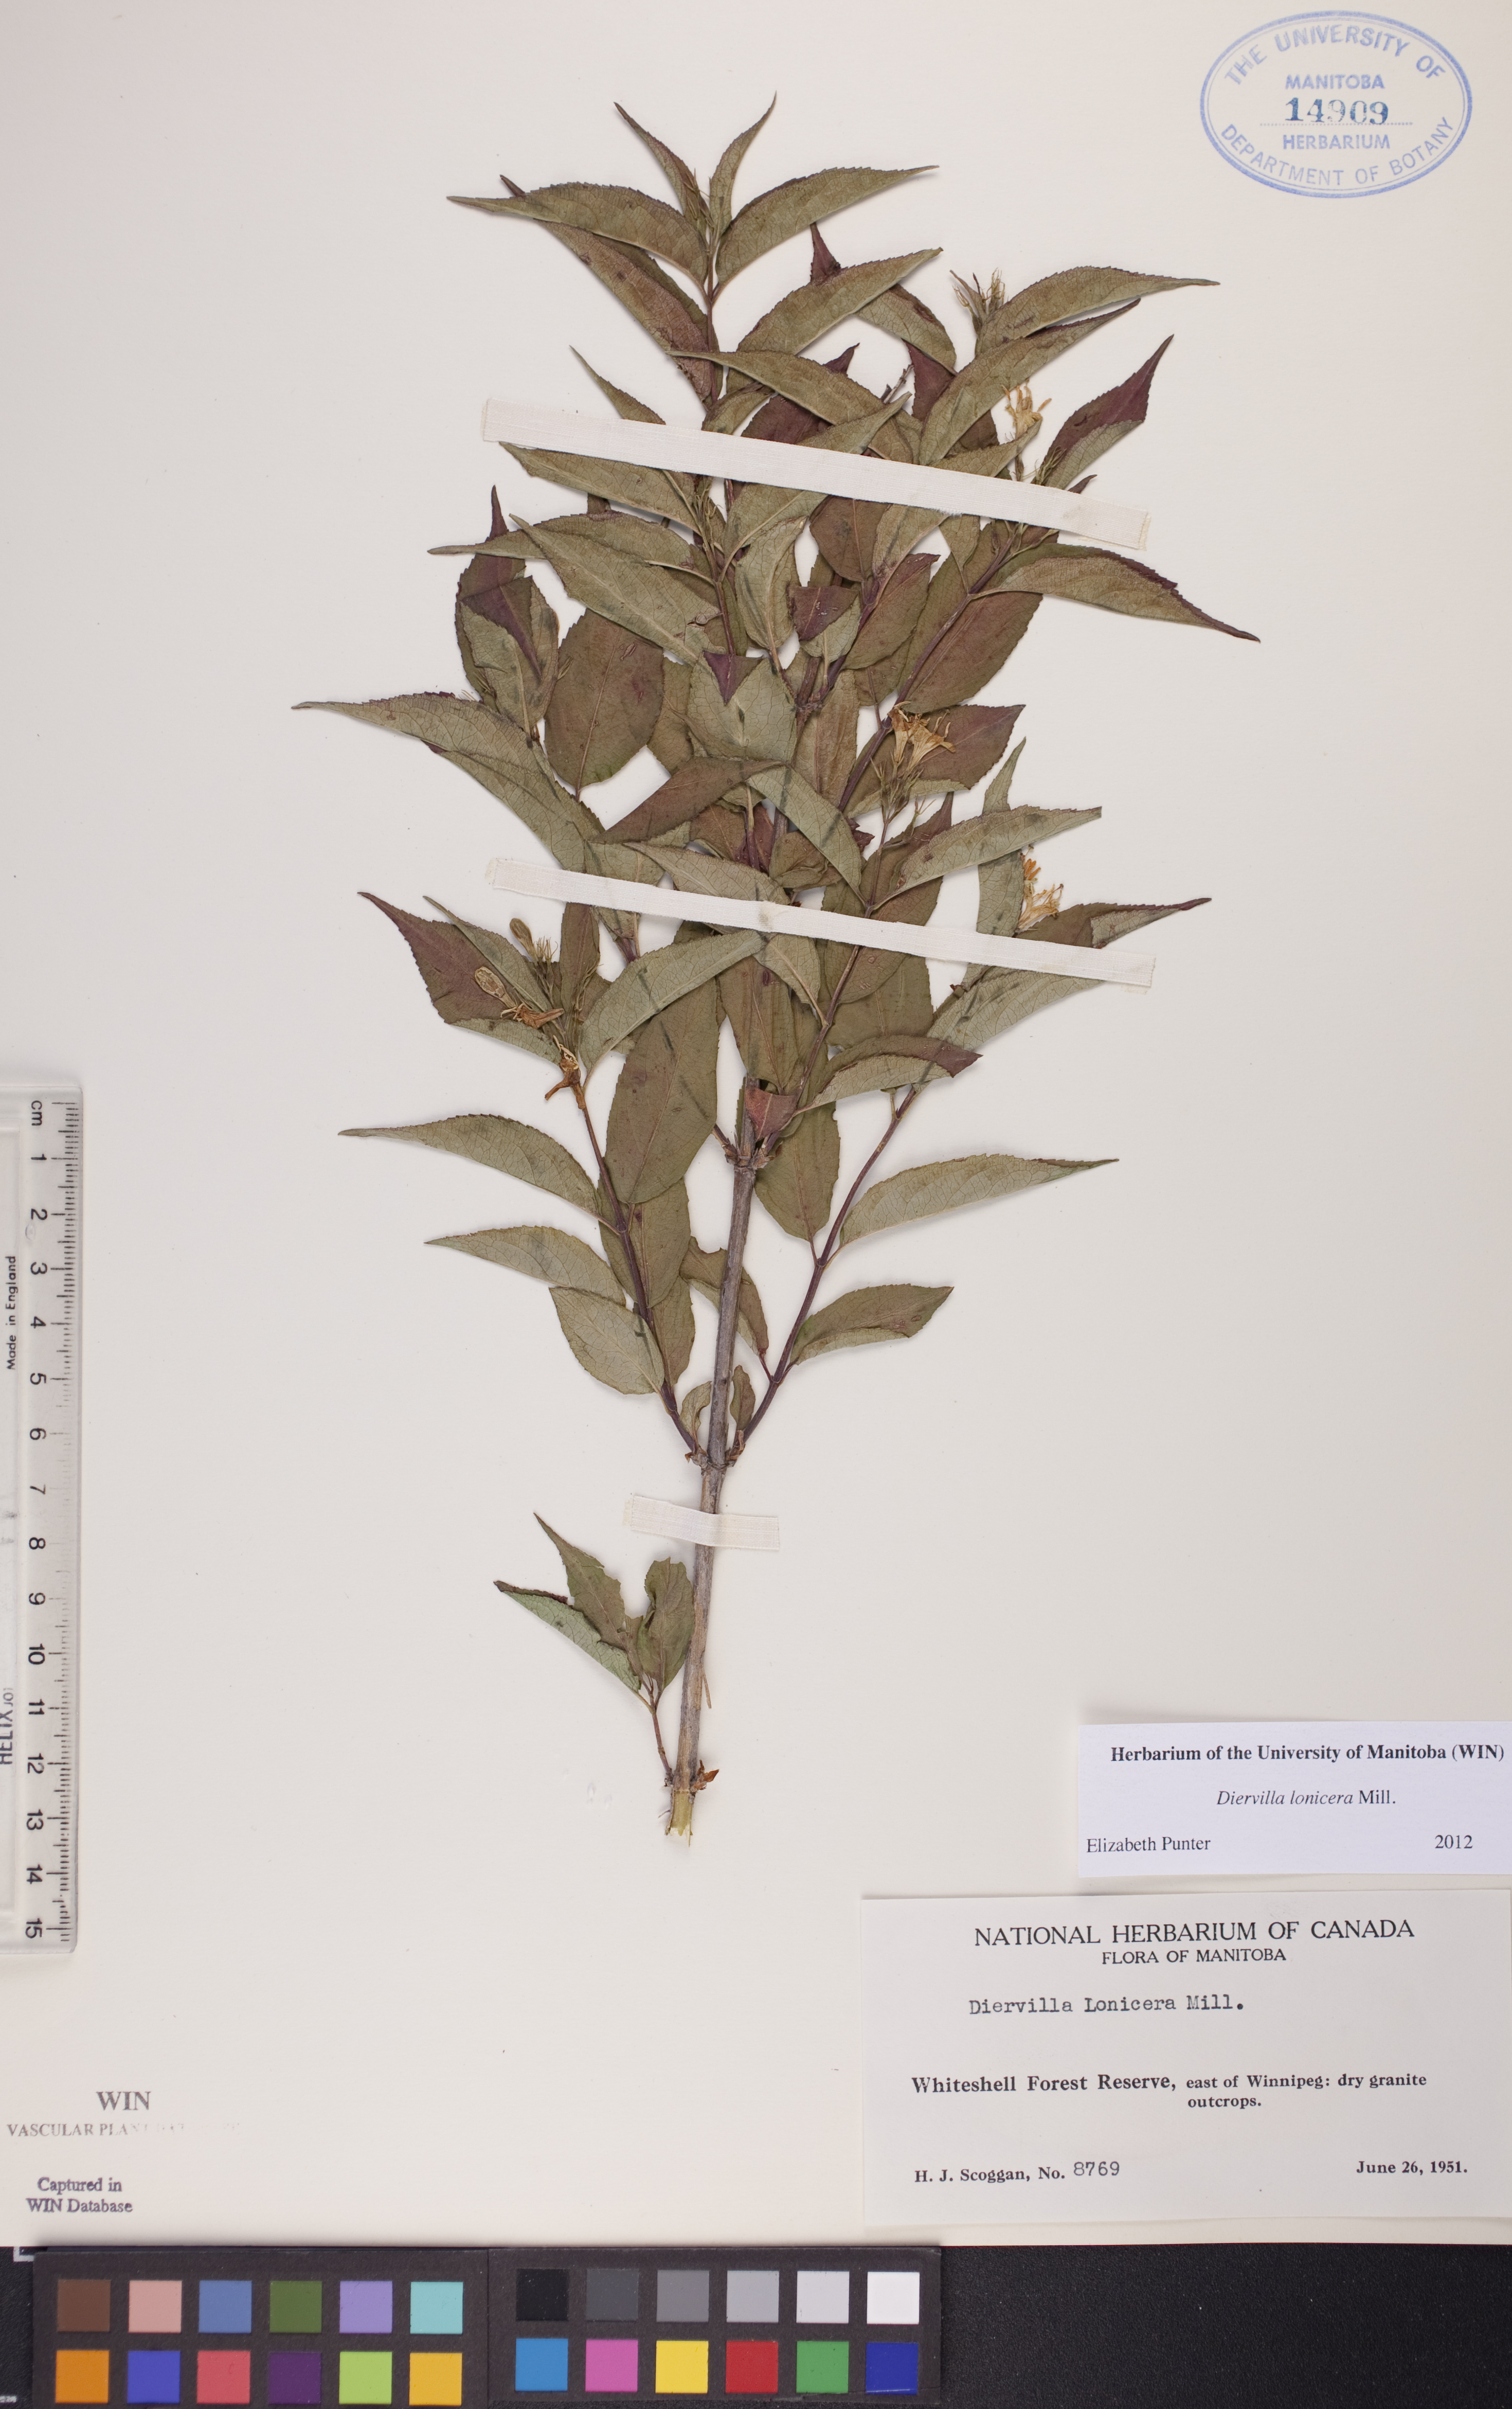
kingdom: Plantae
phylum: Tracheophyta
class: Magnoliopsida
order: Dipsacales
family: Caprifoliaceae
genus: Diervilla
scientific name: Diervilla lonicera
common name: Bush-honeysuckle
